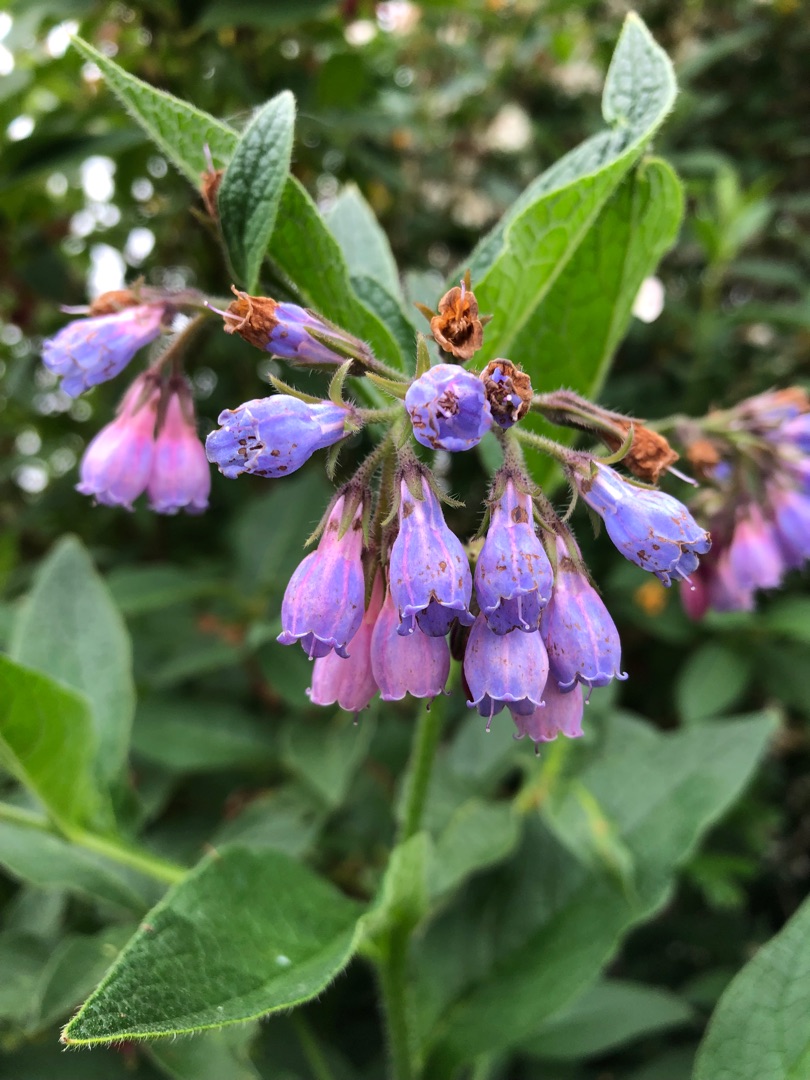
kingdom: Plantae
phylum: Tracheophyta
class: Magnoliopsida
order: Boraginales
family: Boraginaceae
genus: Symphytum
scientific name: Symphytum uplandicum
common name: Foder-kulsukker
